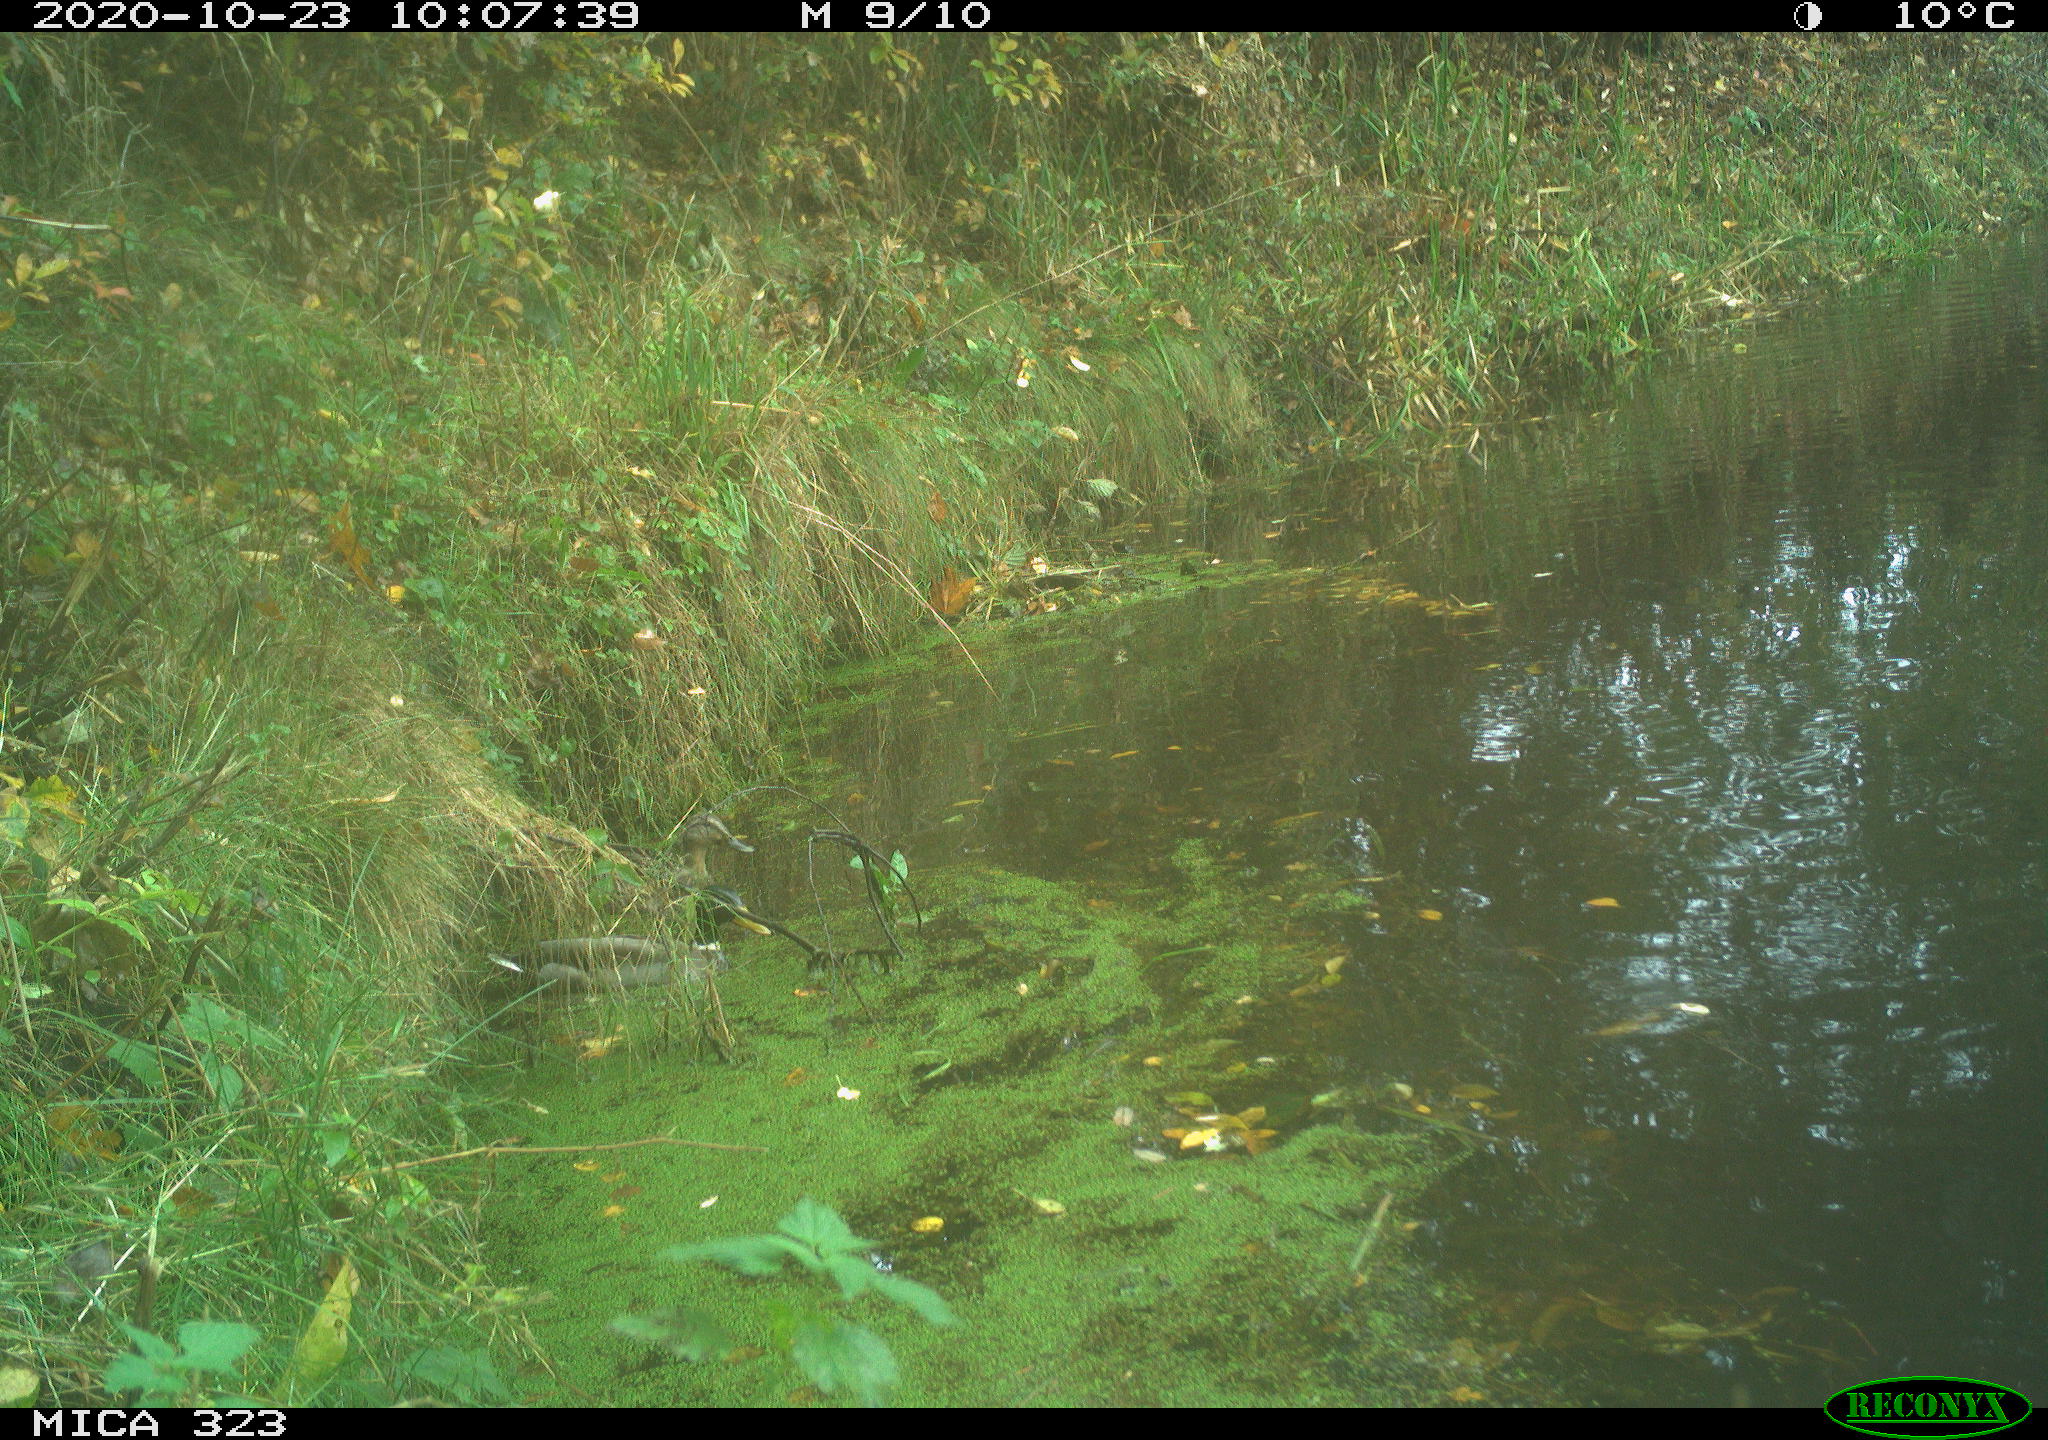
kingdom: Animalia
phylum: Chordata
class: Aves
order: Anseriformes
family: Anatidae
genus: Anas
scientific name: Anas platyrhynchos
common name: Mallard
